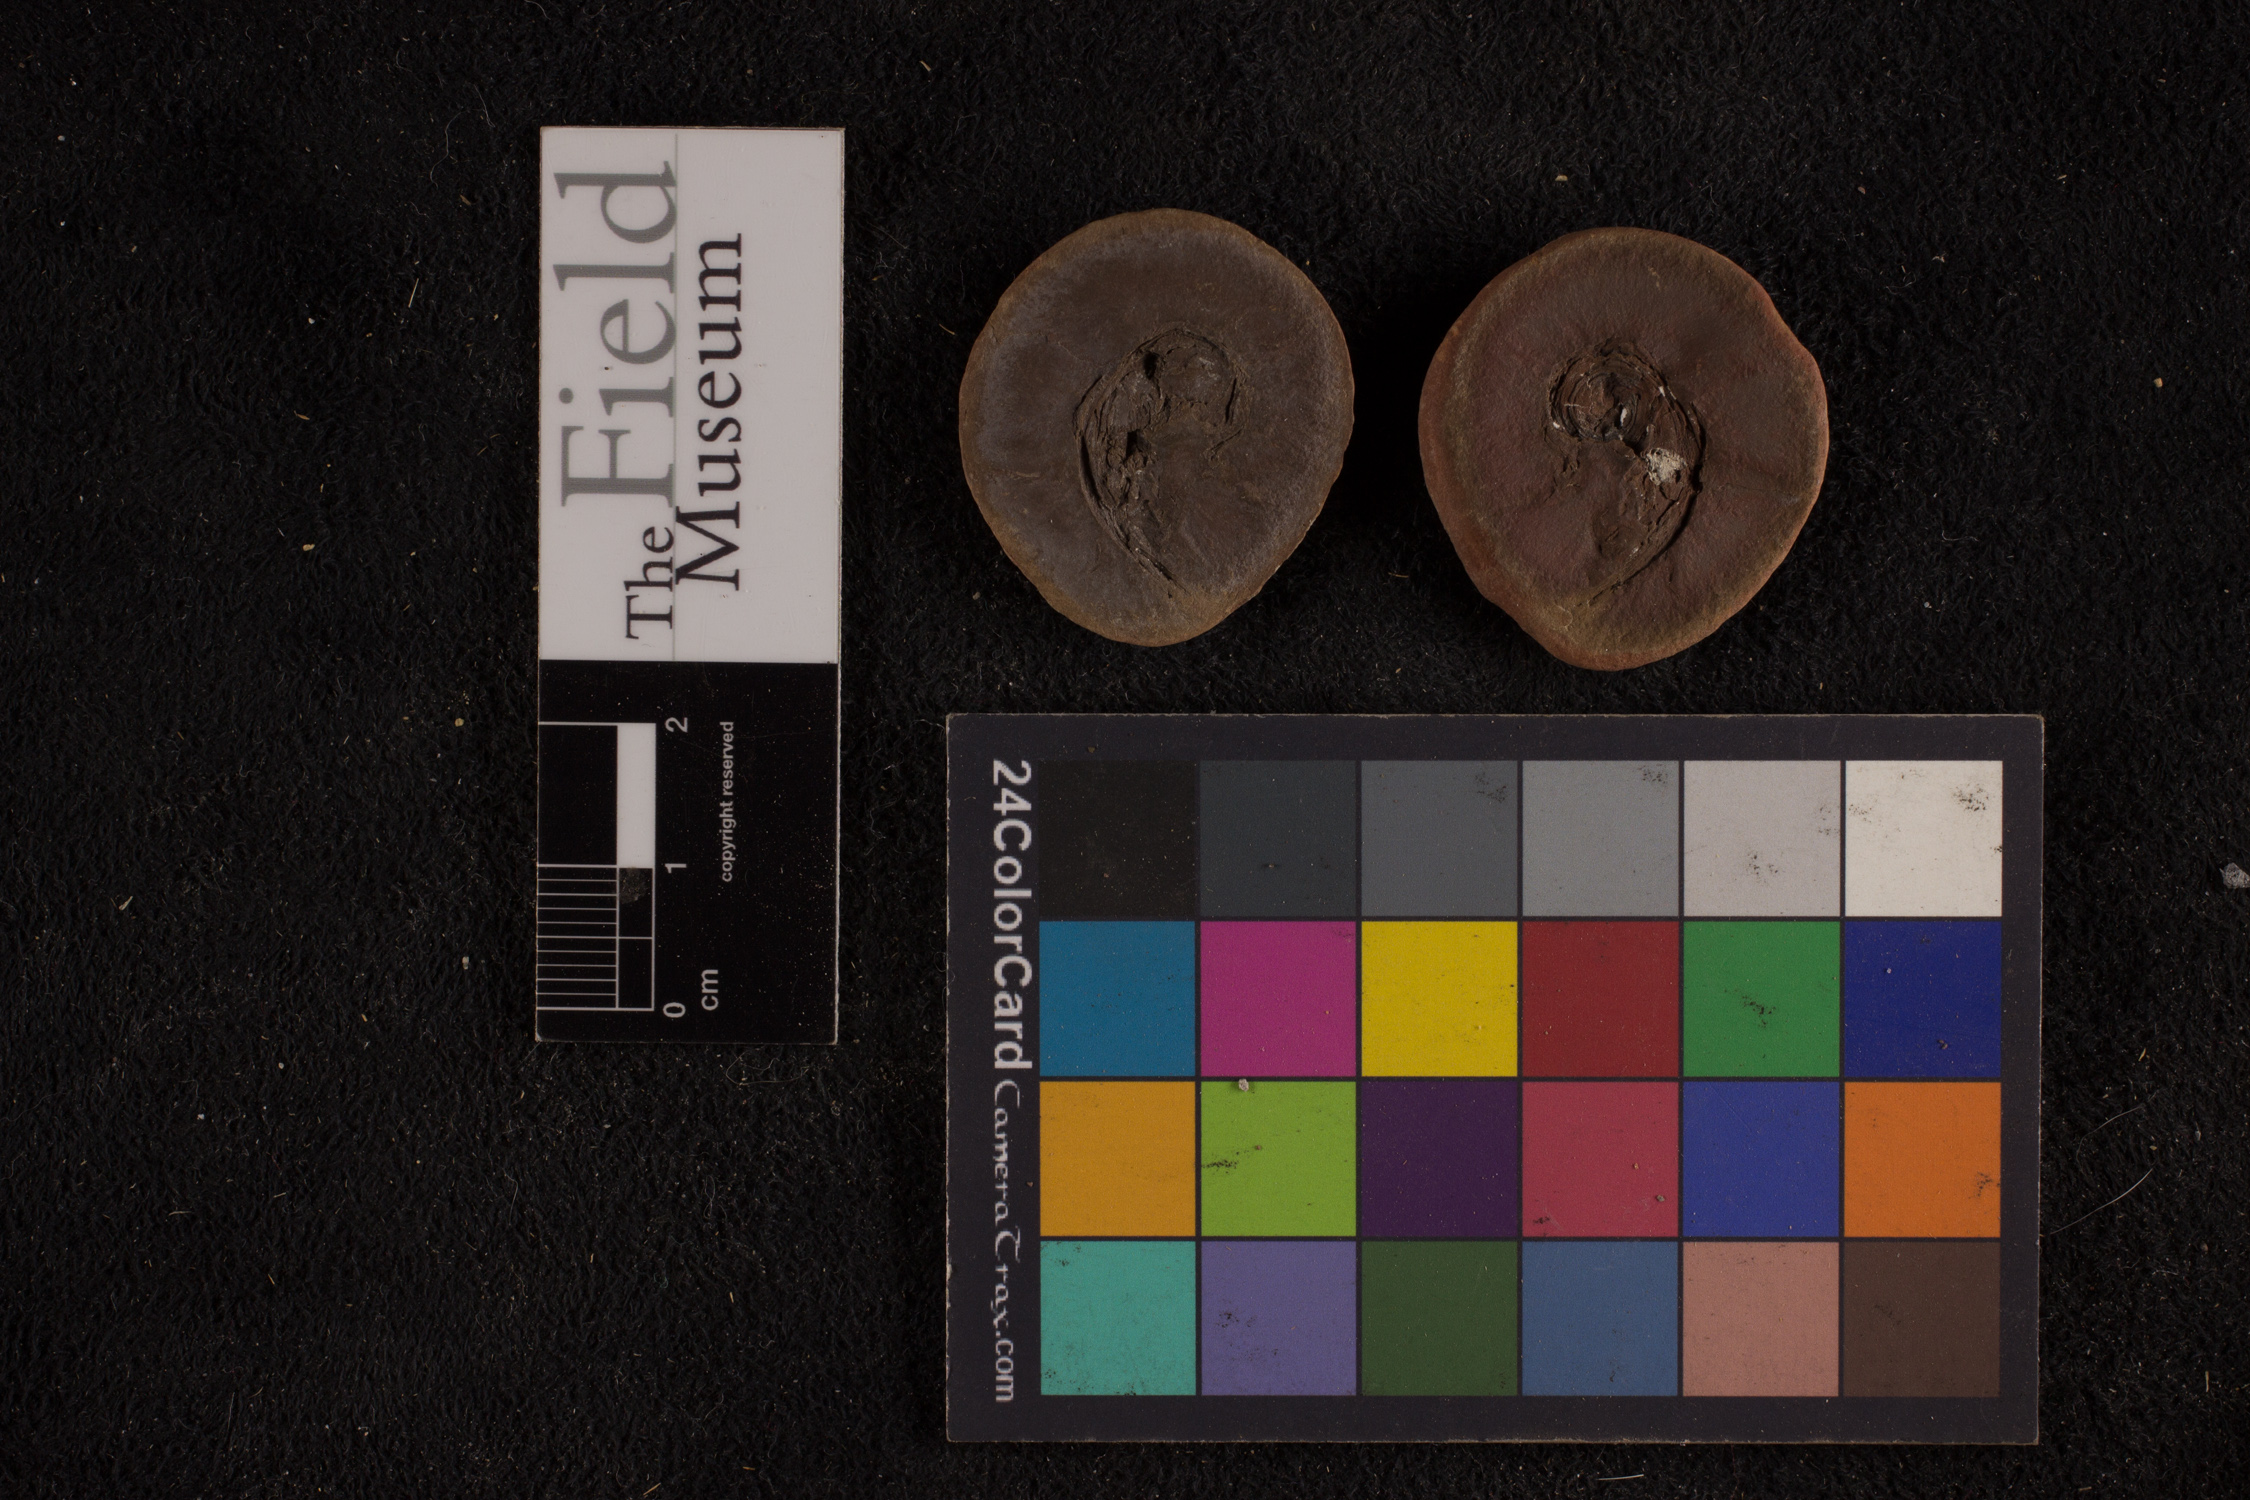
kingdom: Plantae
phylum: Tracheophyta
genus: Spiropteris
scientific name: Spiropteris
